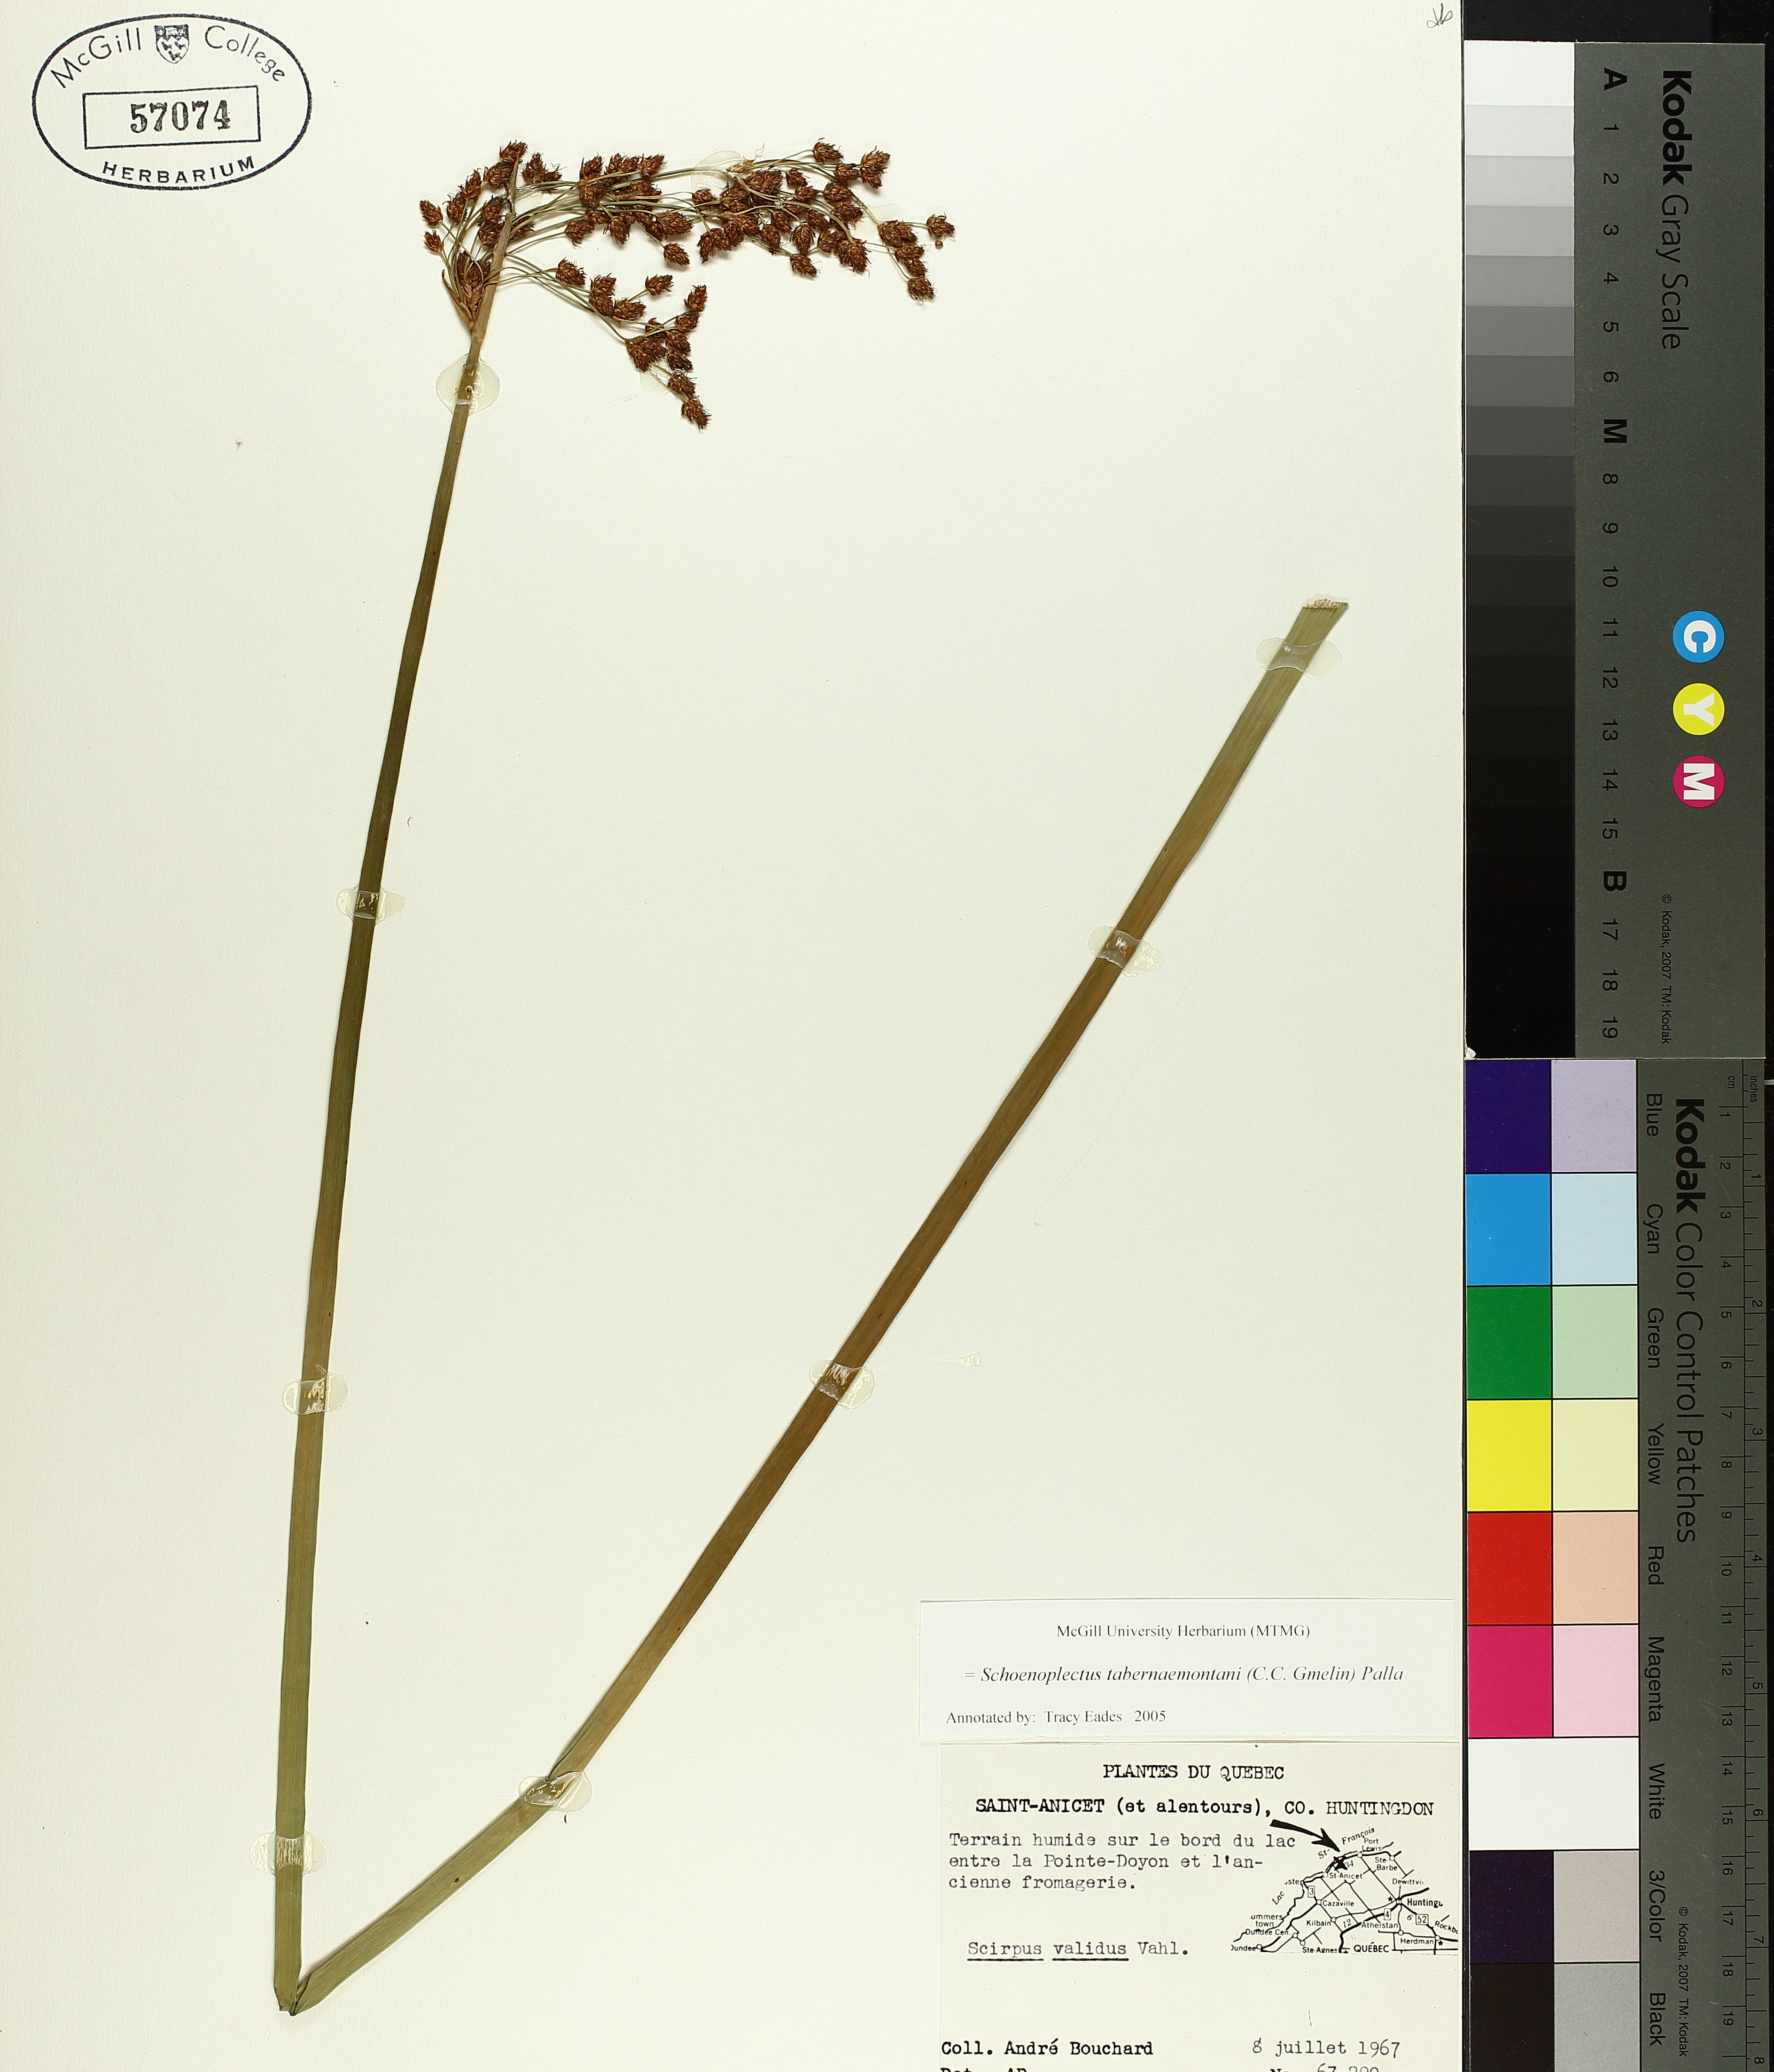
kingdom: Plantae
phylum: Tracheophyta
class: Liliopsida
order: Poales
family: Cyperaceae
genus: Schoenoplectus
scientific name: Schoenoplectus tabernaemontani
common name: Grey club-rush
